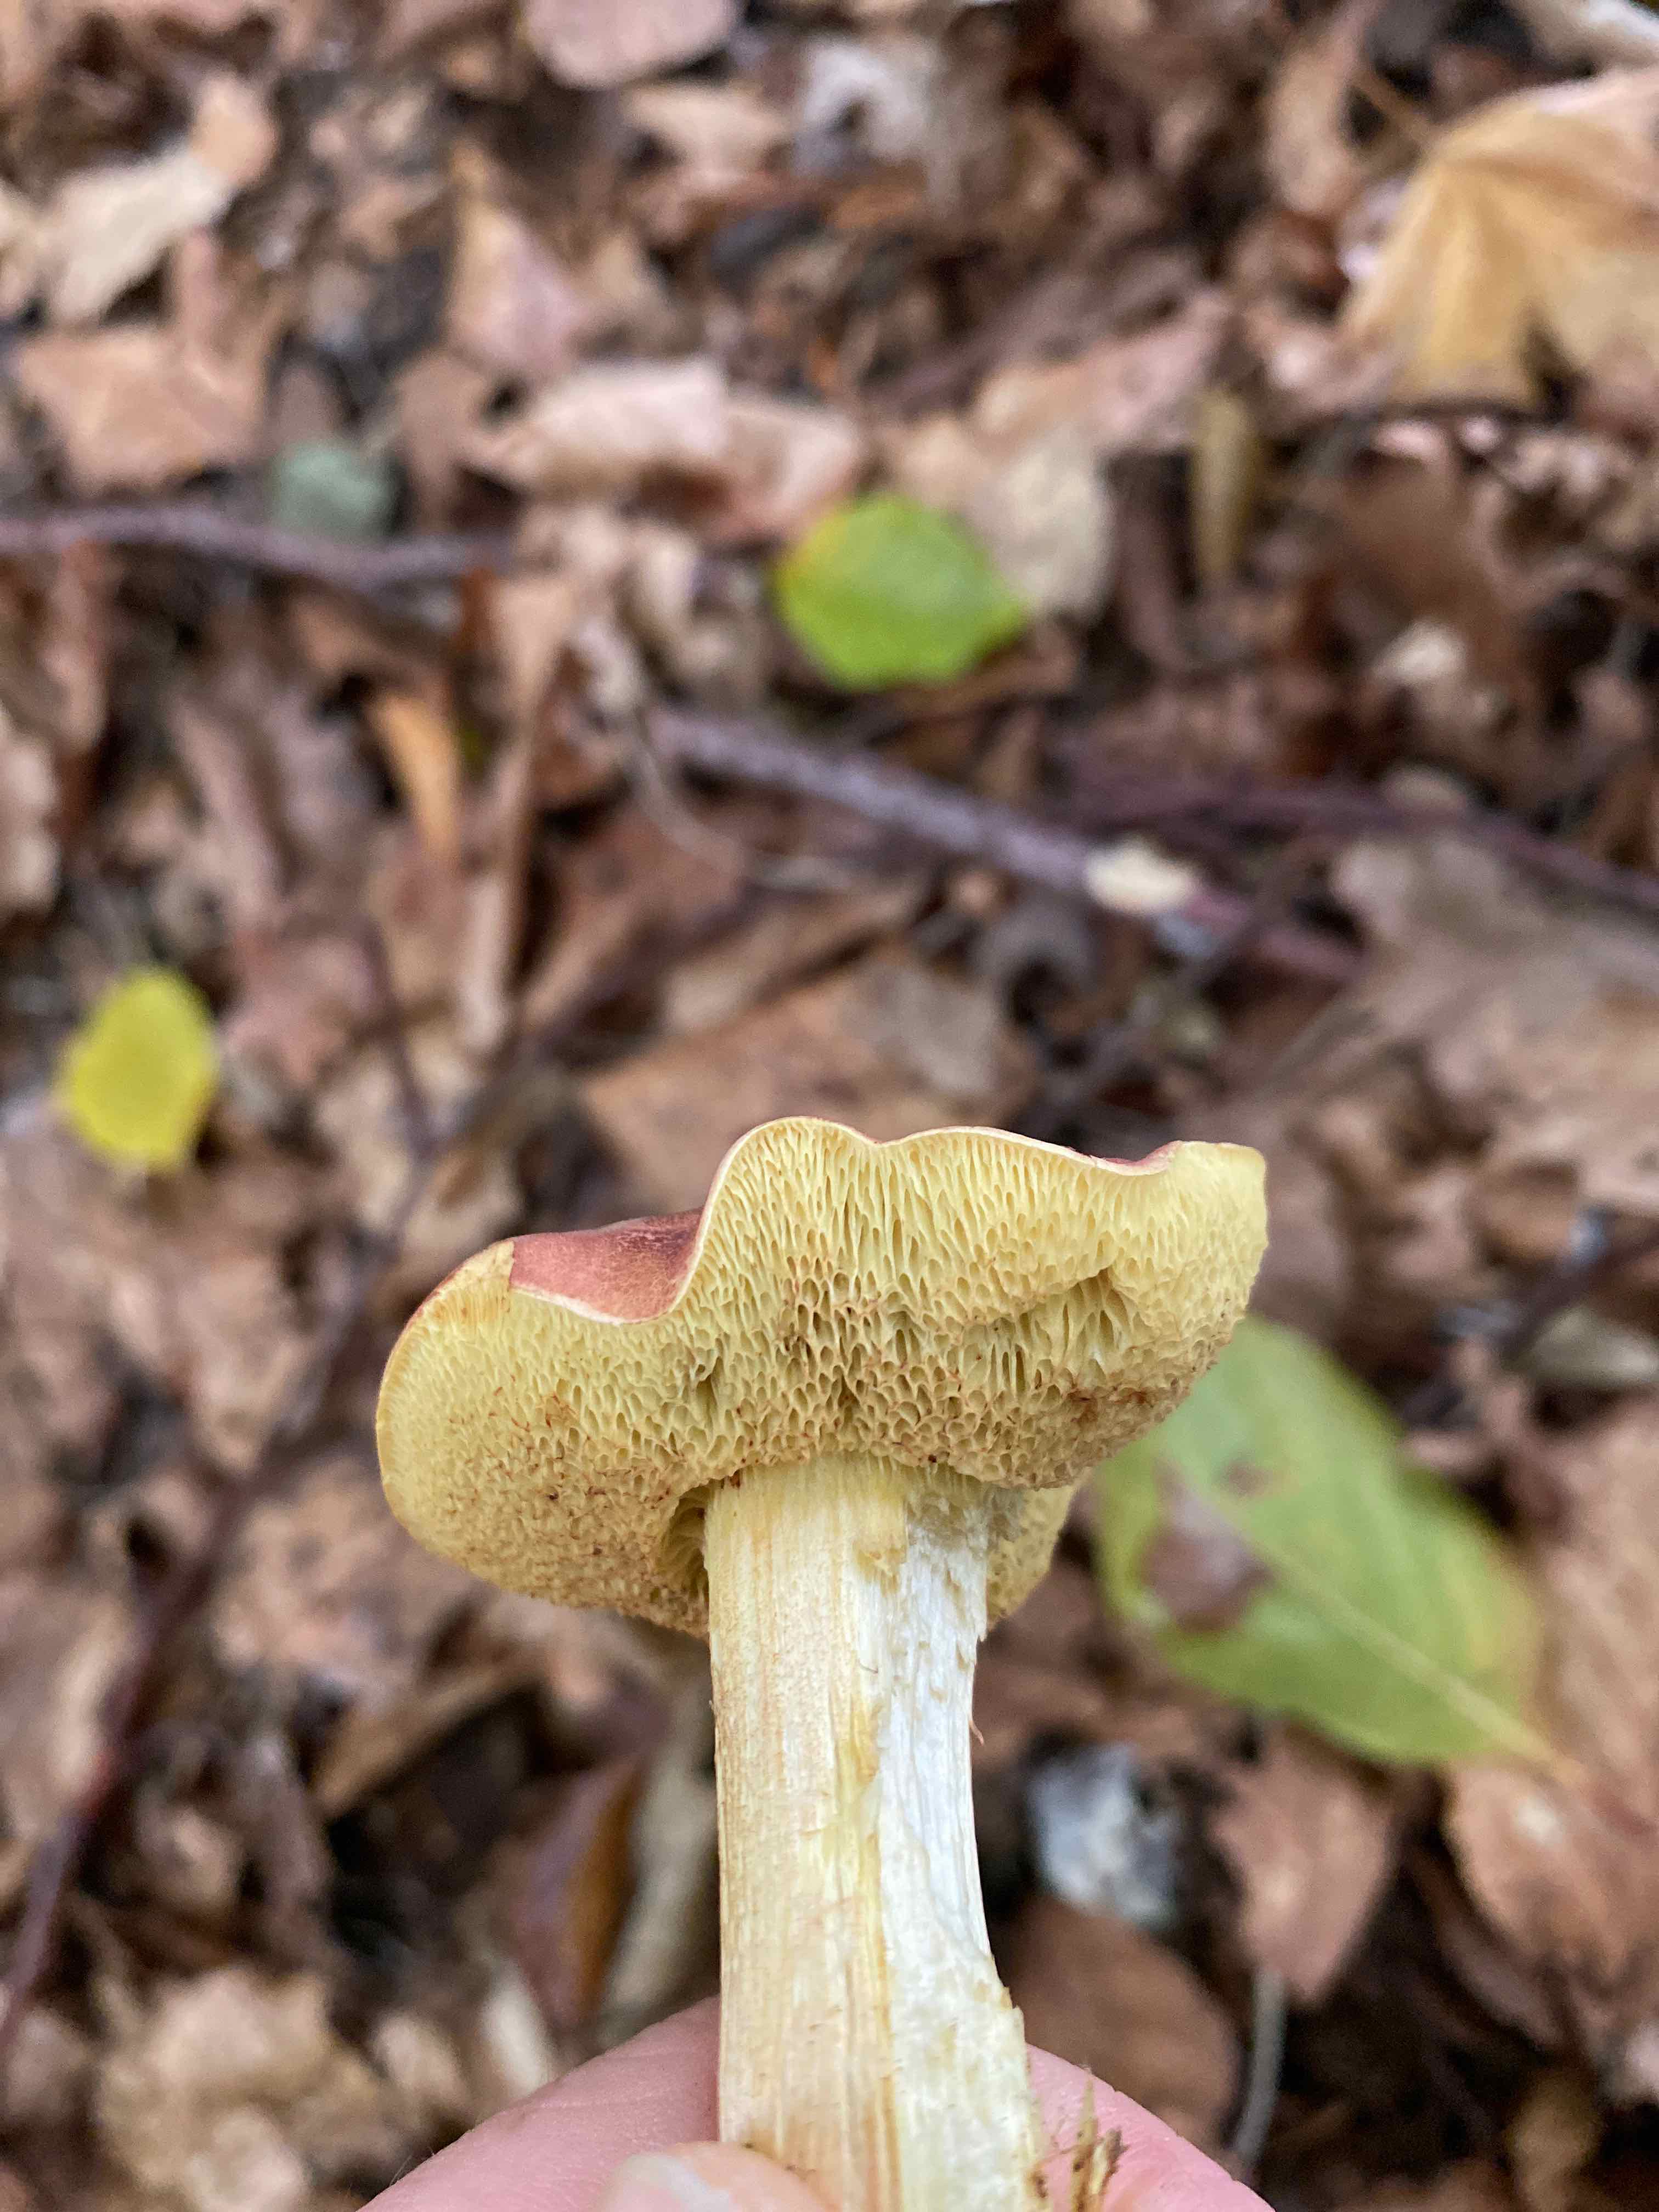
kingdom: Fungi
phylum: Basidiomycota
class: Agaricomycetes
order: Boletales
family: Boletaceae
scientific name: Boletaceae
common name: rørhatfamilien
